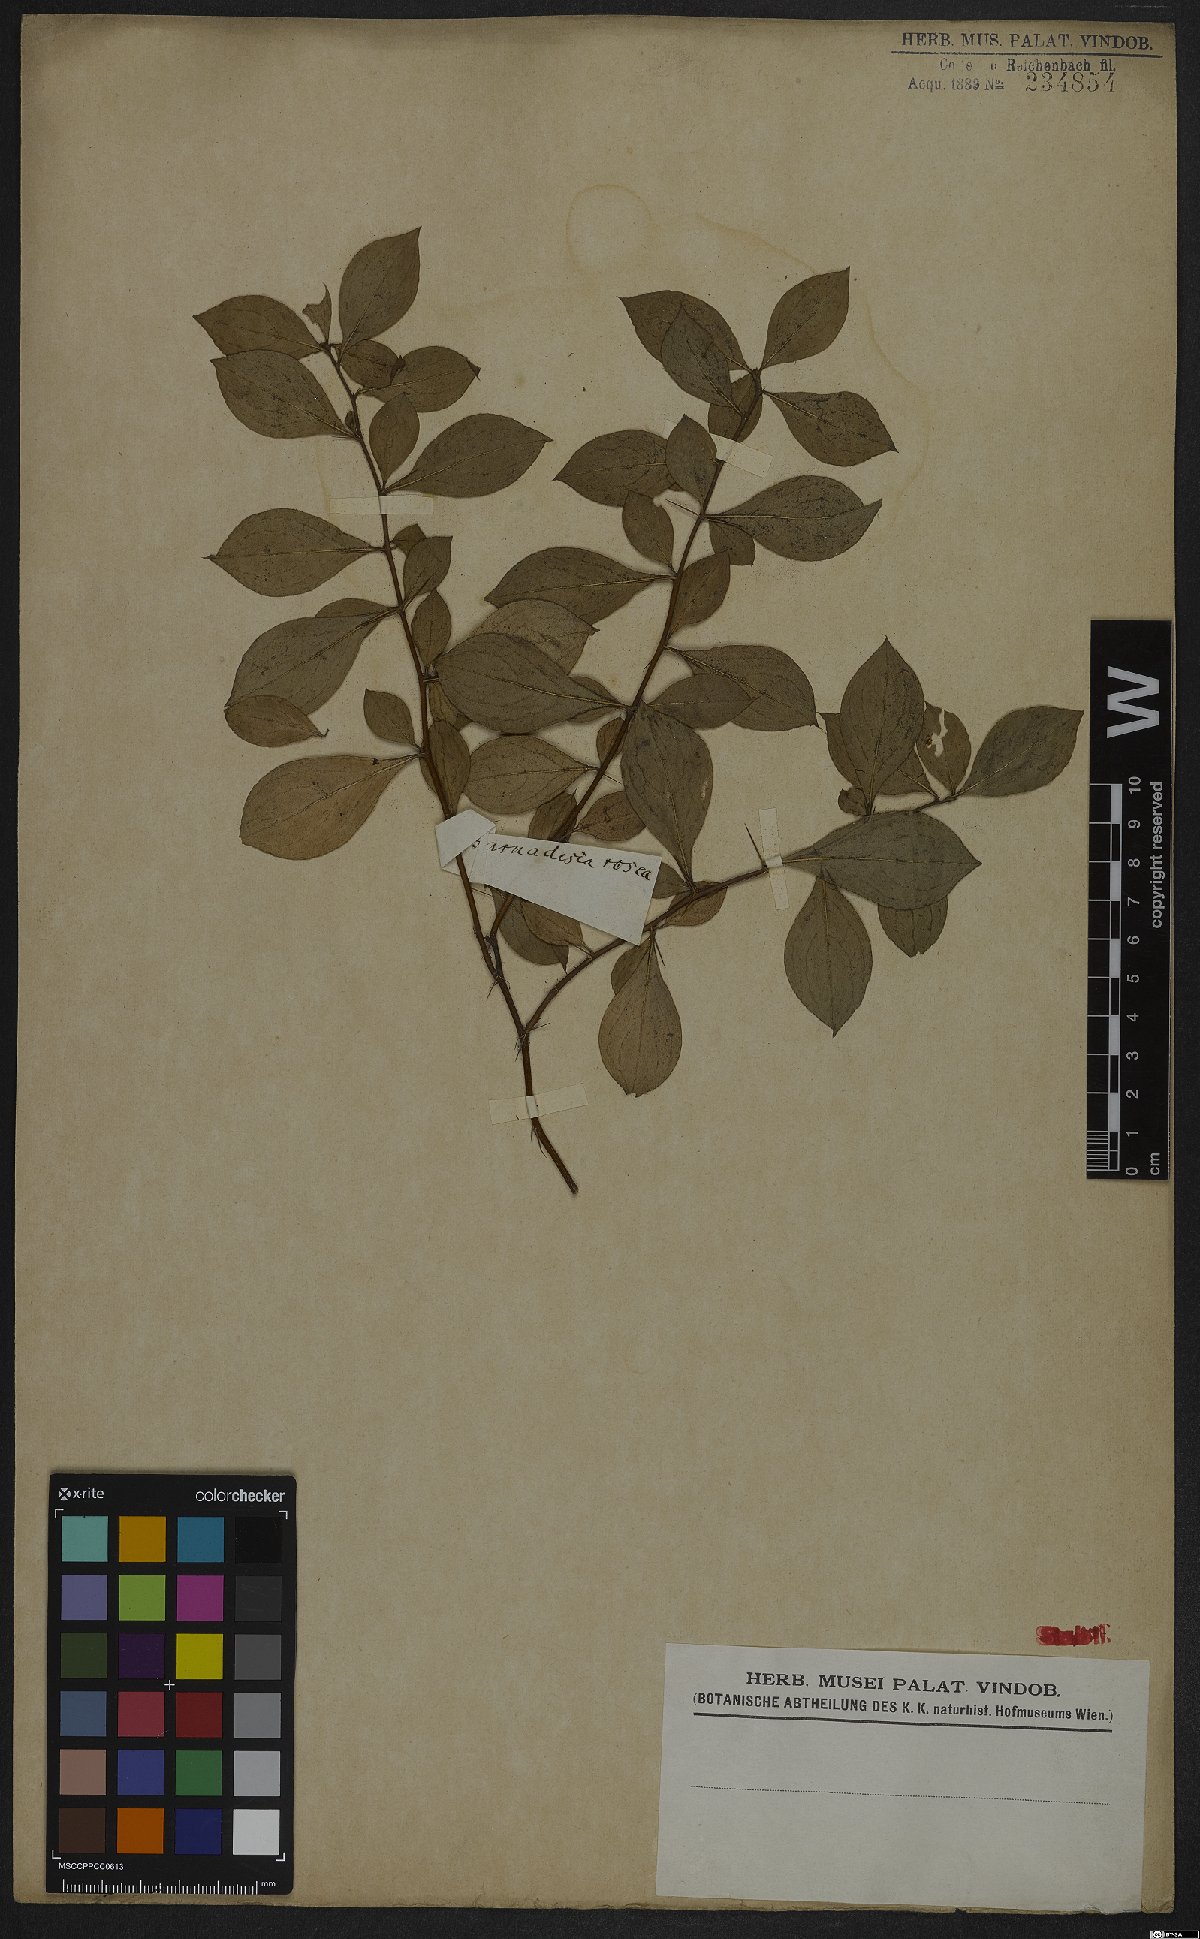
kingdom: Plantae
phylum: Tracheophyta
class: Magnoliopsida
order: Asterales
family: Asteraceae
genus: Barnadesia
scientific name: Barnadesia caryophylla
